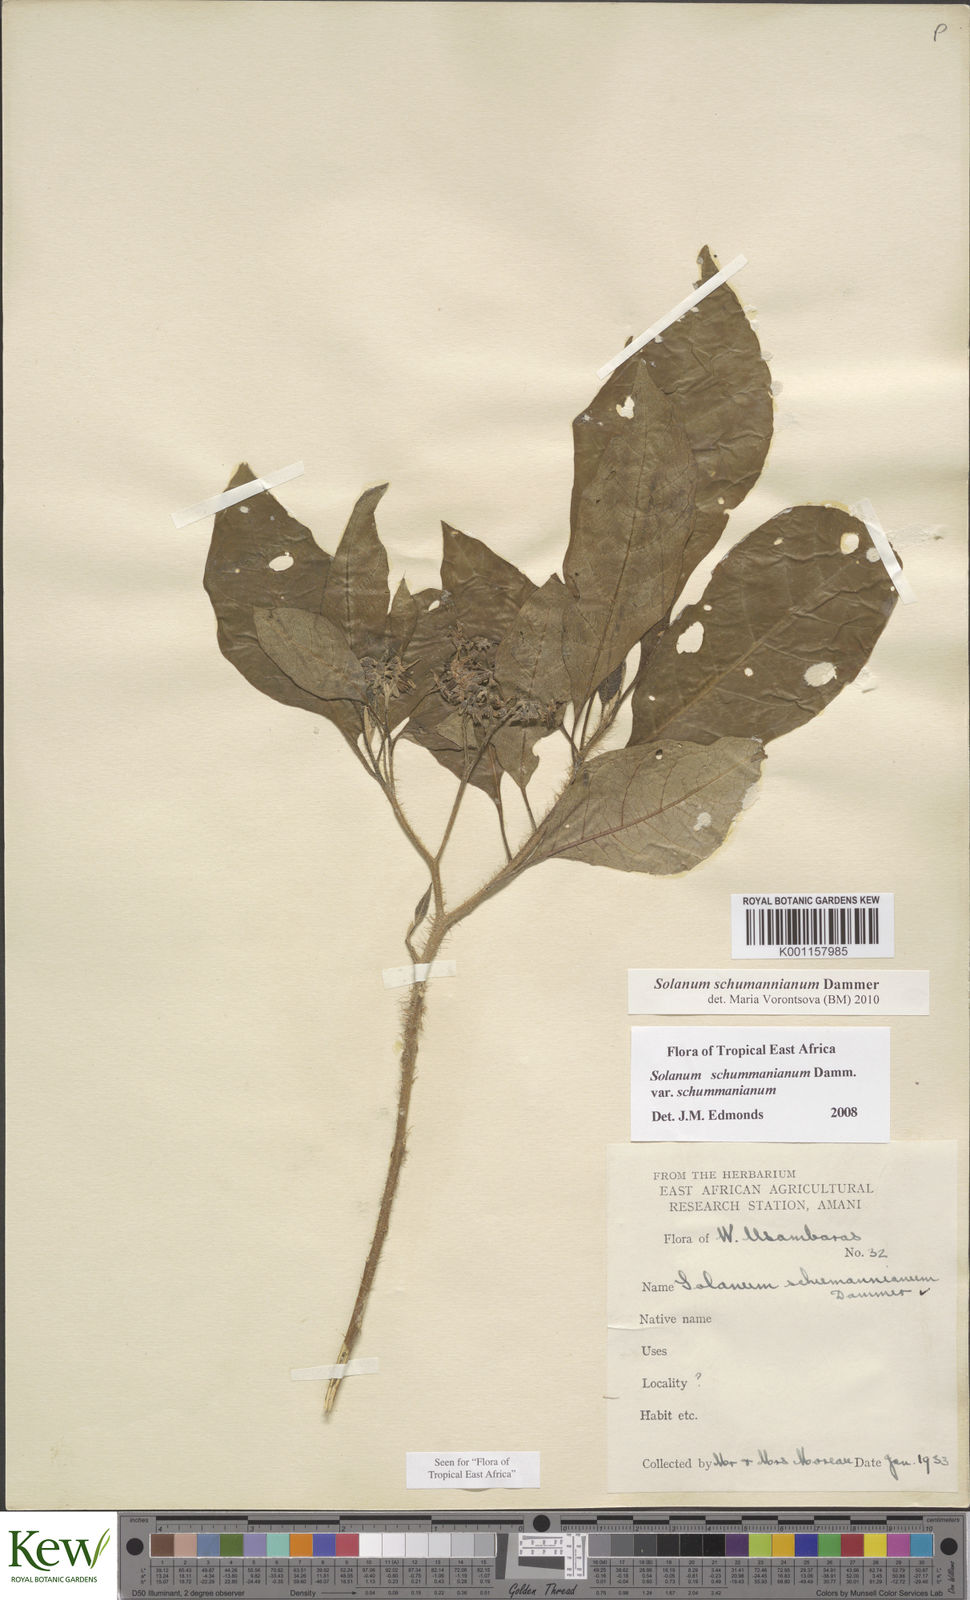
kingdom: Plantae
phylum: Tracheophyta
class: Magnoliopsida
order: Solanales
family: Solanaceae
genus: Solanum
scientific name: Solanum schumannianum
